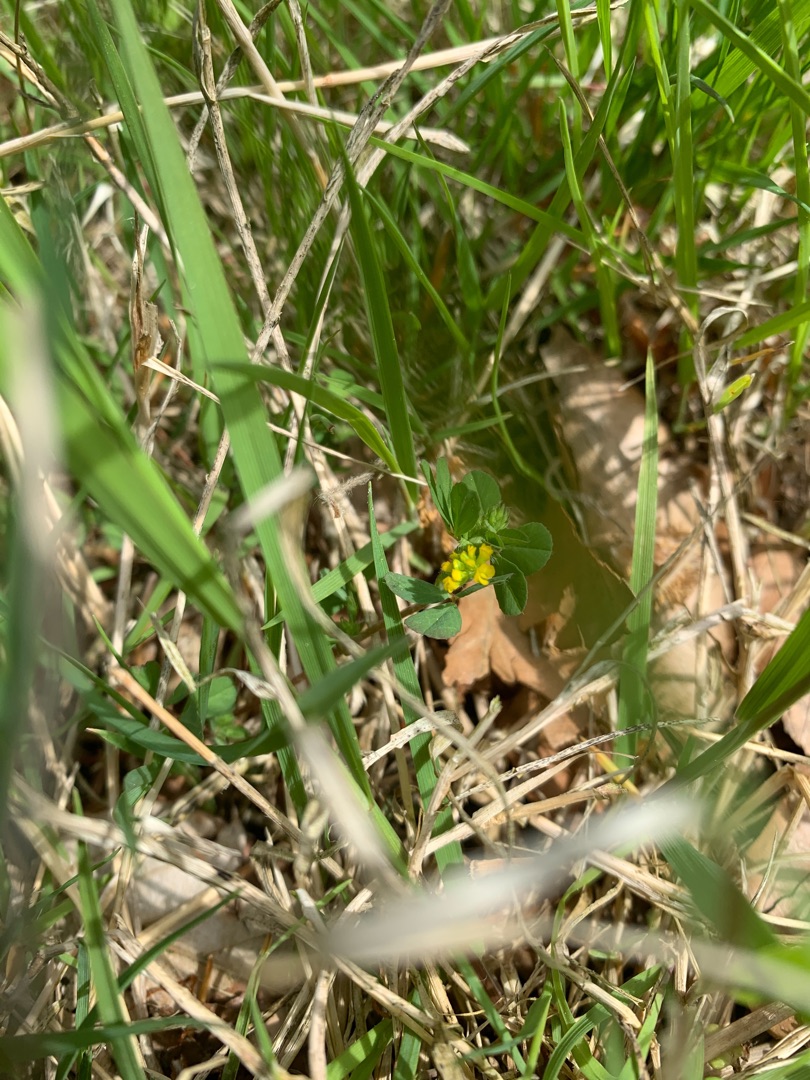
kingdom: Plantae
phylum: Tracheophyta
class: Magnoliopsida
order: Fabales
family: Fabaceae
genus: Trifolium
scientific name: Trifolium dubium
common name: Fin kløver
